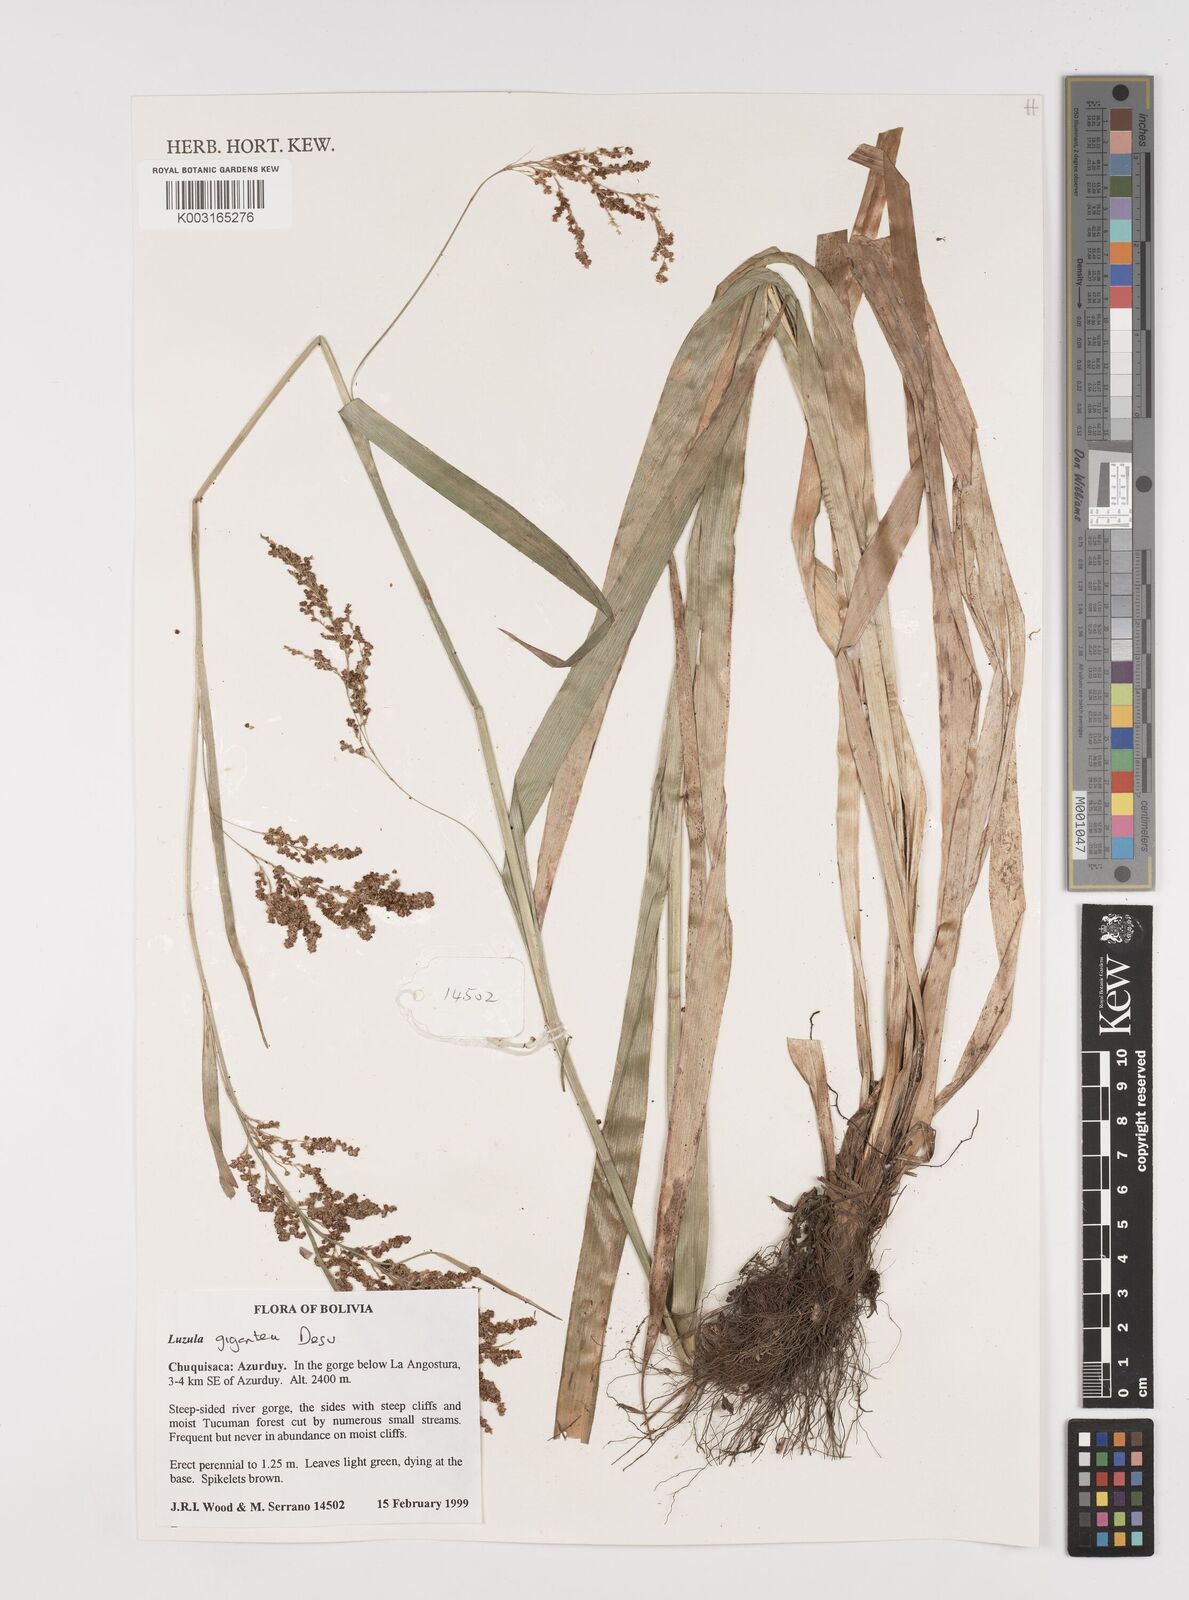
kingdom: Plantae
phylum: Tracheophyta
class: Liliopsida
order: Poales
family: Juncaceae
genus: Luzula
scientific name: Luzula gigantea
